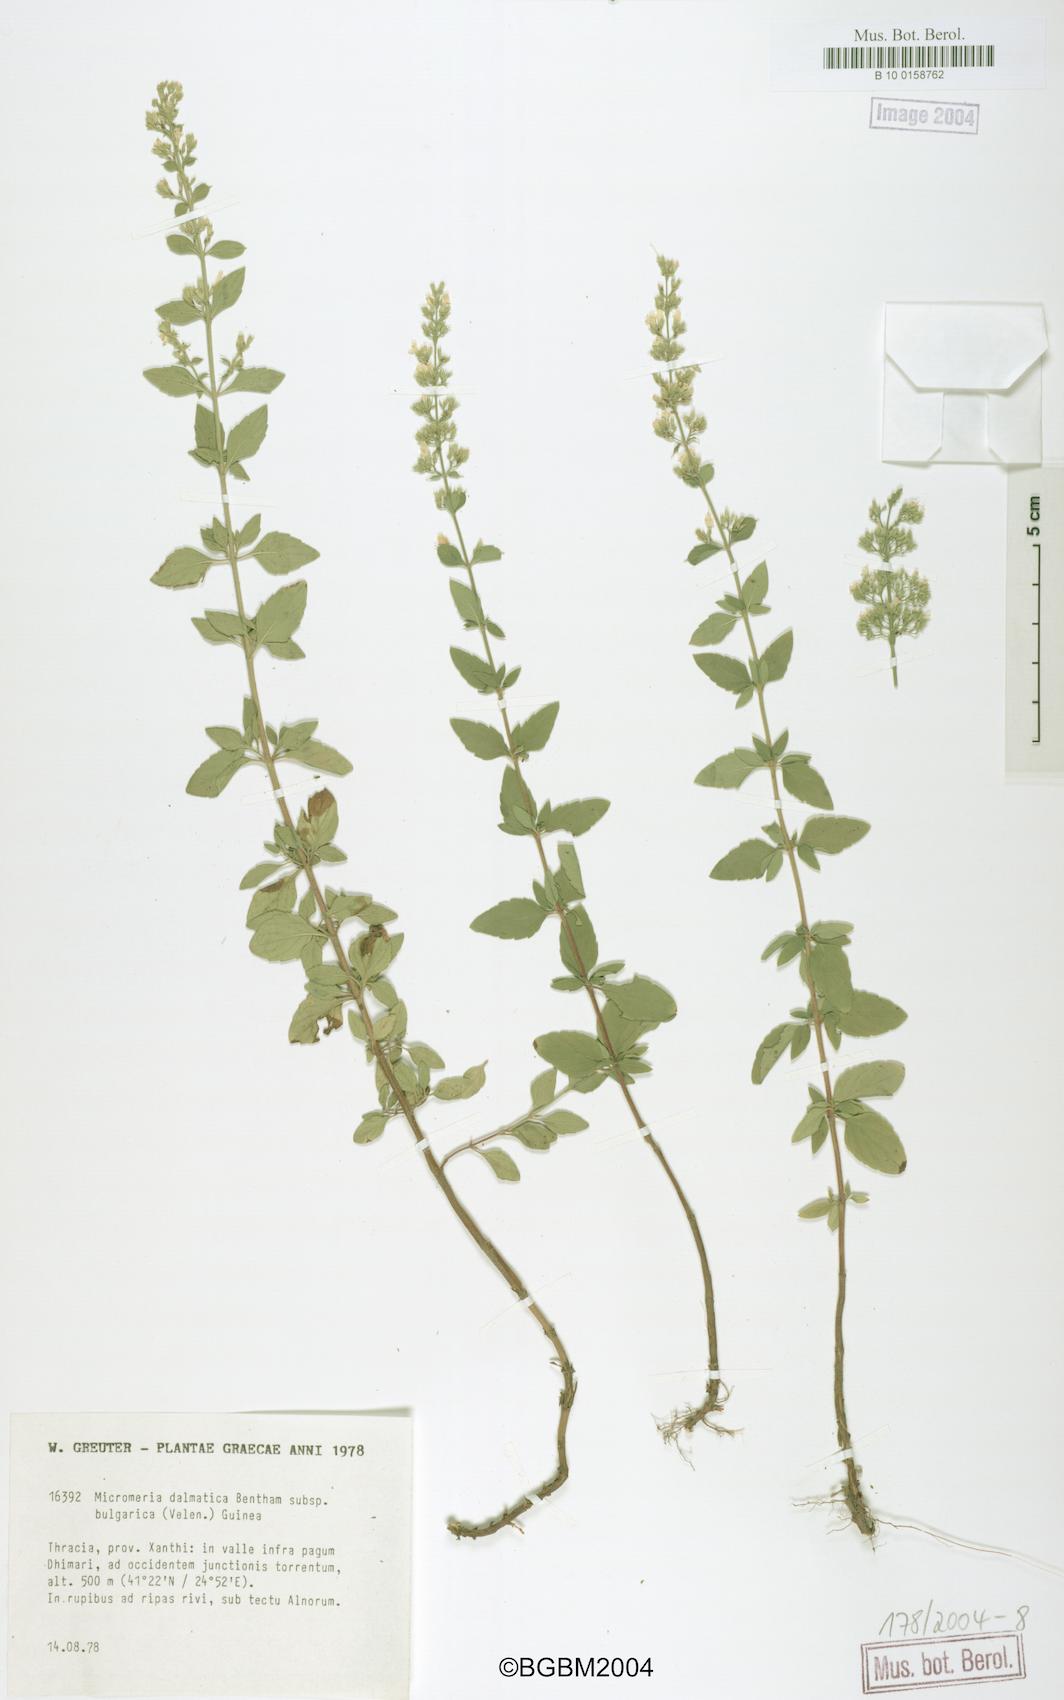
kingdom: Plantae
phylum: Tracheophyta
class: Magnoliopsida
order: Lamiales
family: Lamiaceae
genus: Clinopodium
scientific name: Clinopodium dalmaticum
